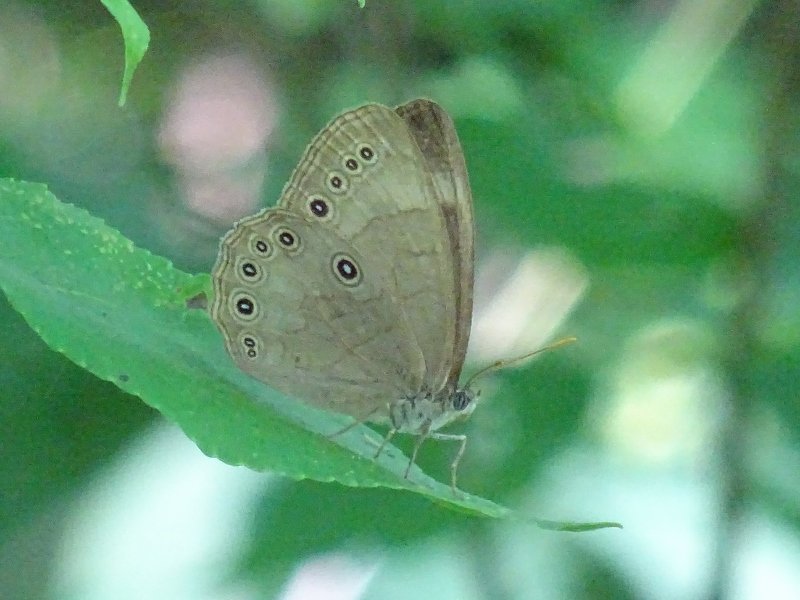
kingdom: Animalia
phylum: Arthropoda
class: Insecta
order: Lepidoptera
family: Nymphalidae
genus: Lethe
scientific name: Lethe
